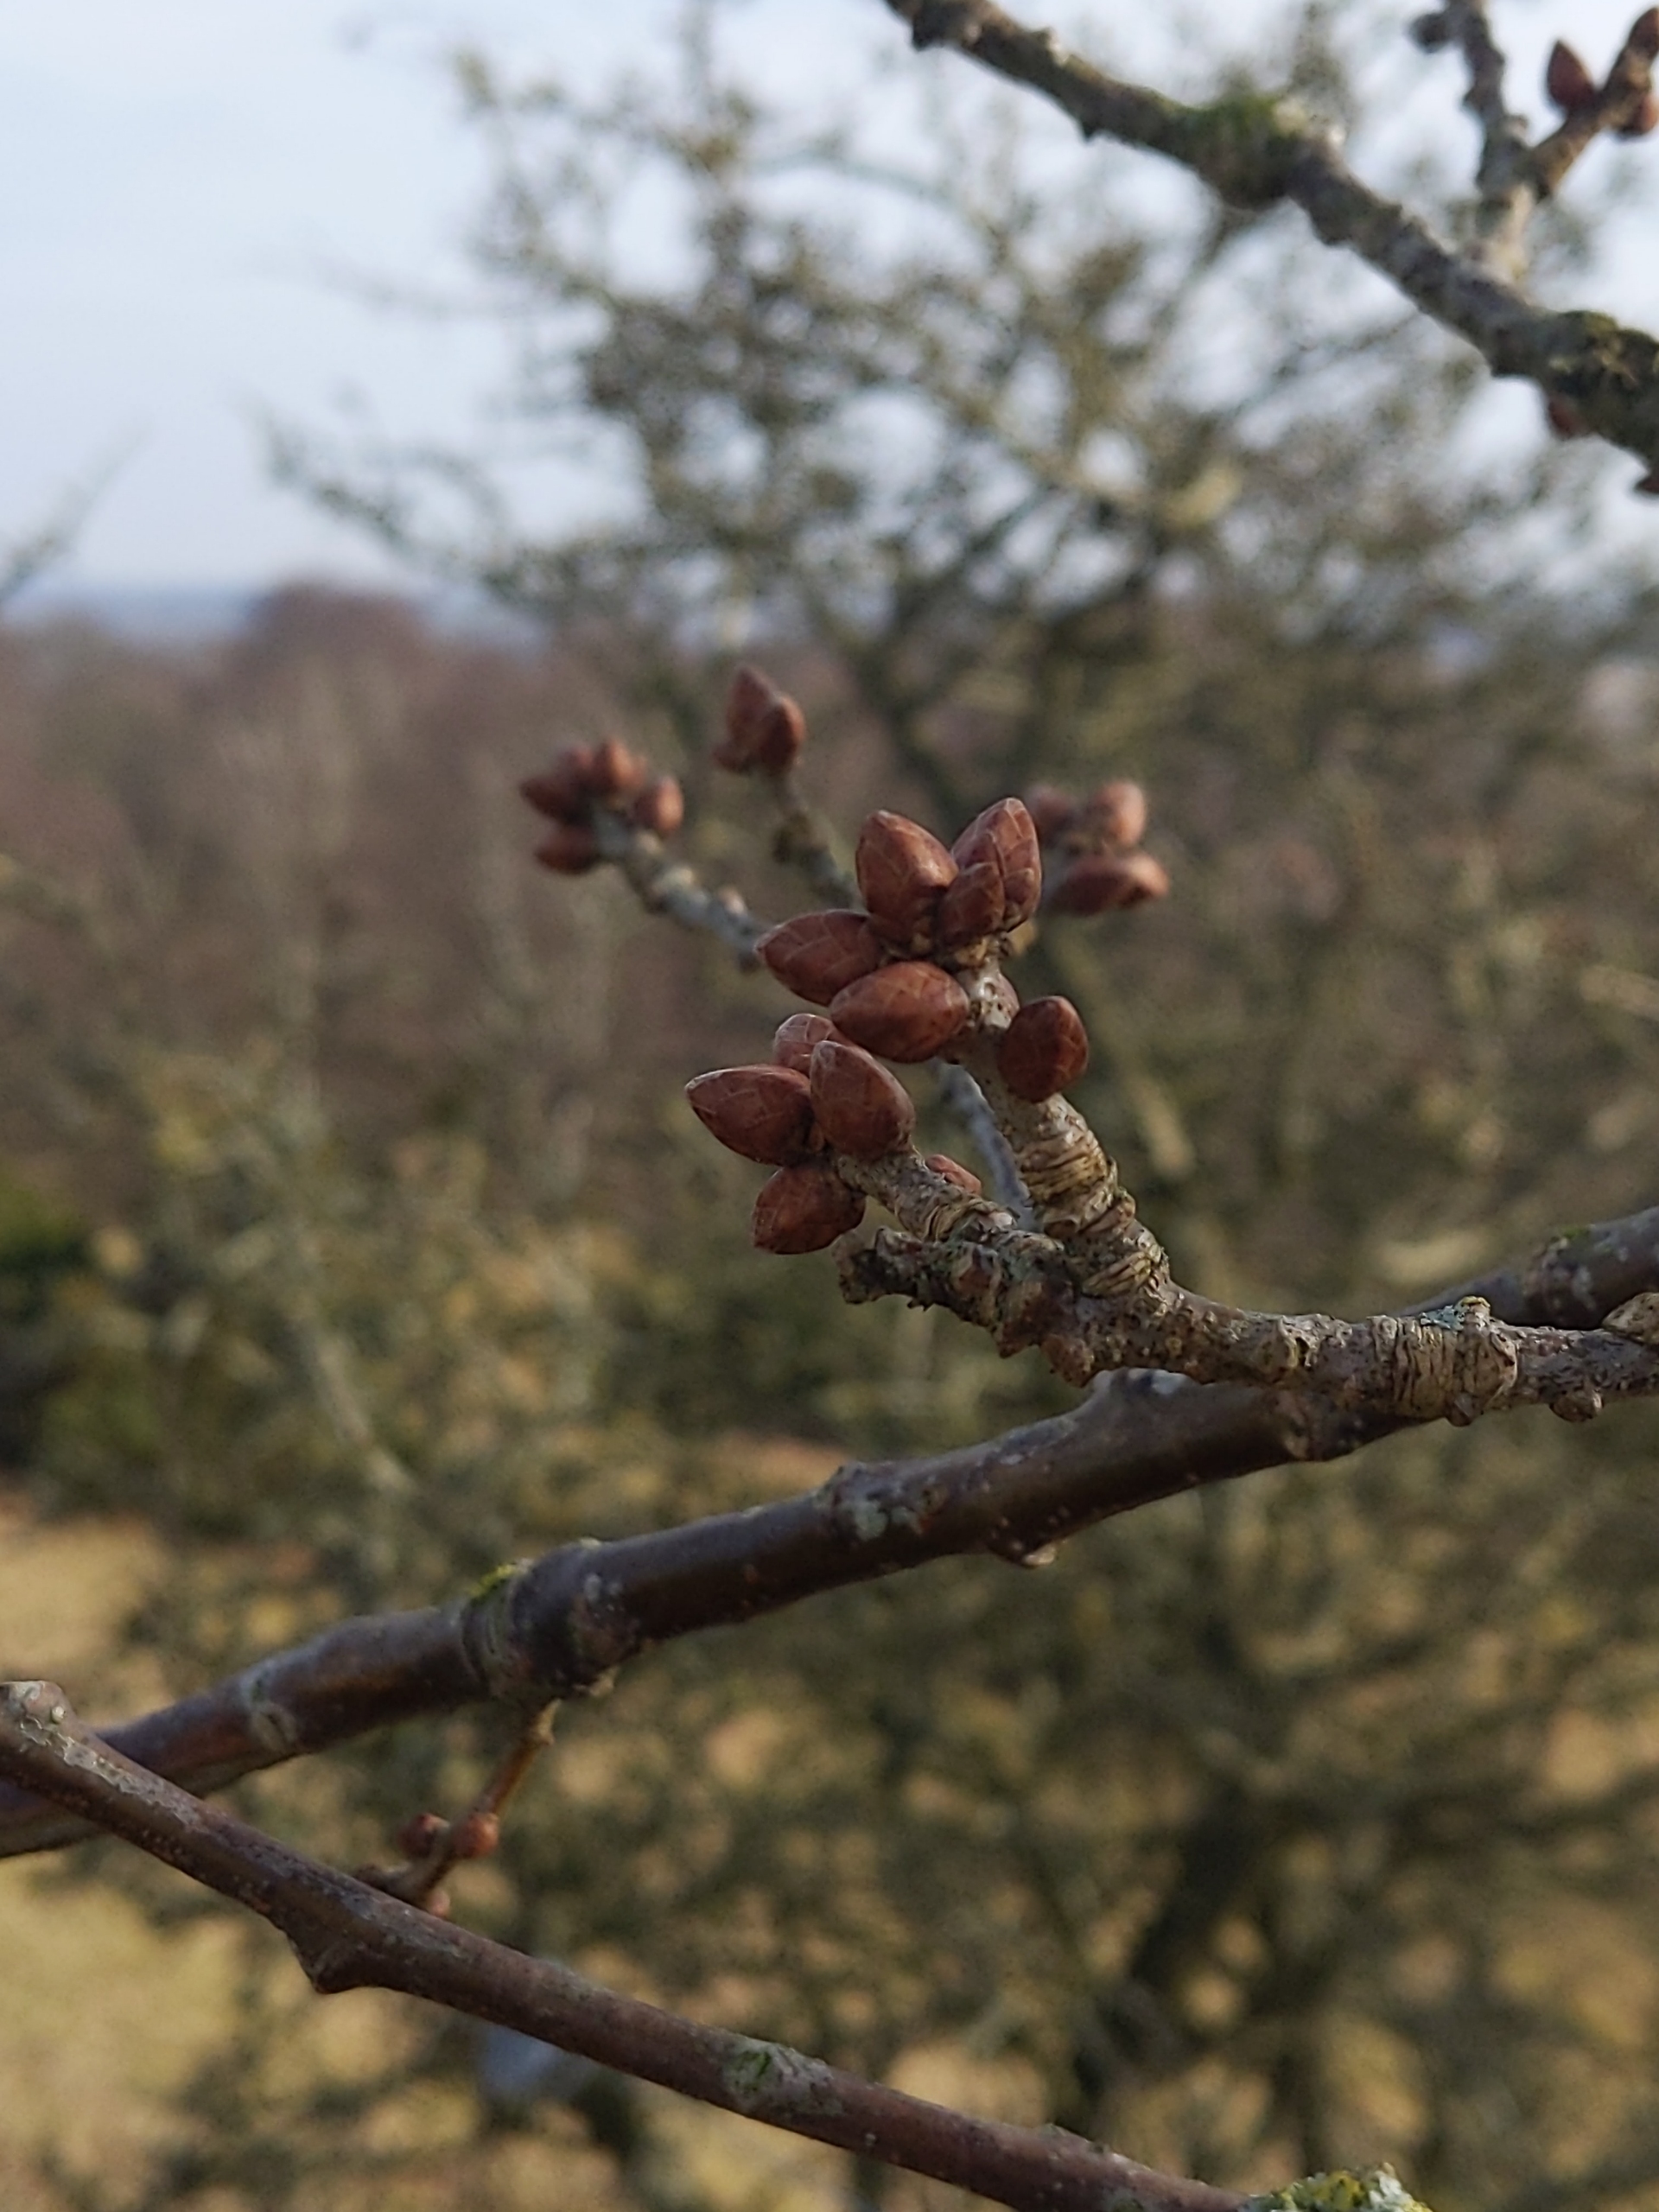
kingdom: Plantae
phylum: Tracheophyta
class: Magnoliopsida
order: Fagales
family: Fagaceae
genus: Quercus
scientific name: Quercus robur
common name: Stilk-eg/almindelig eg
